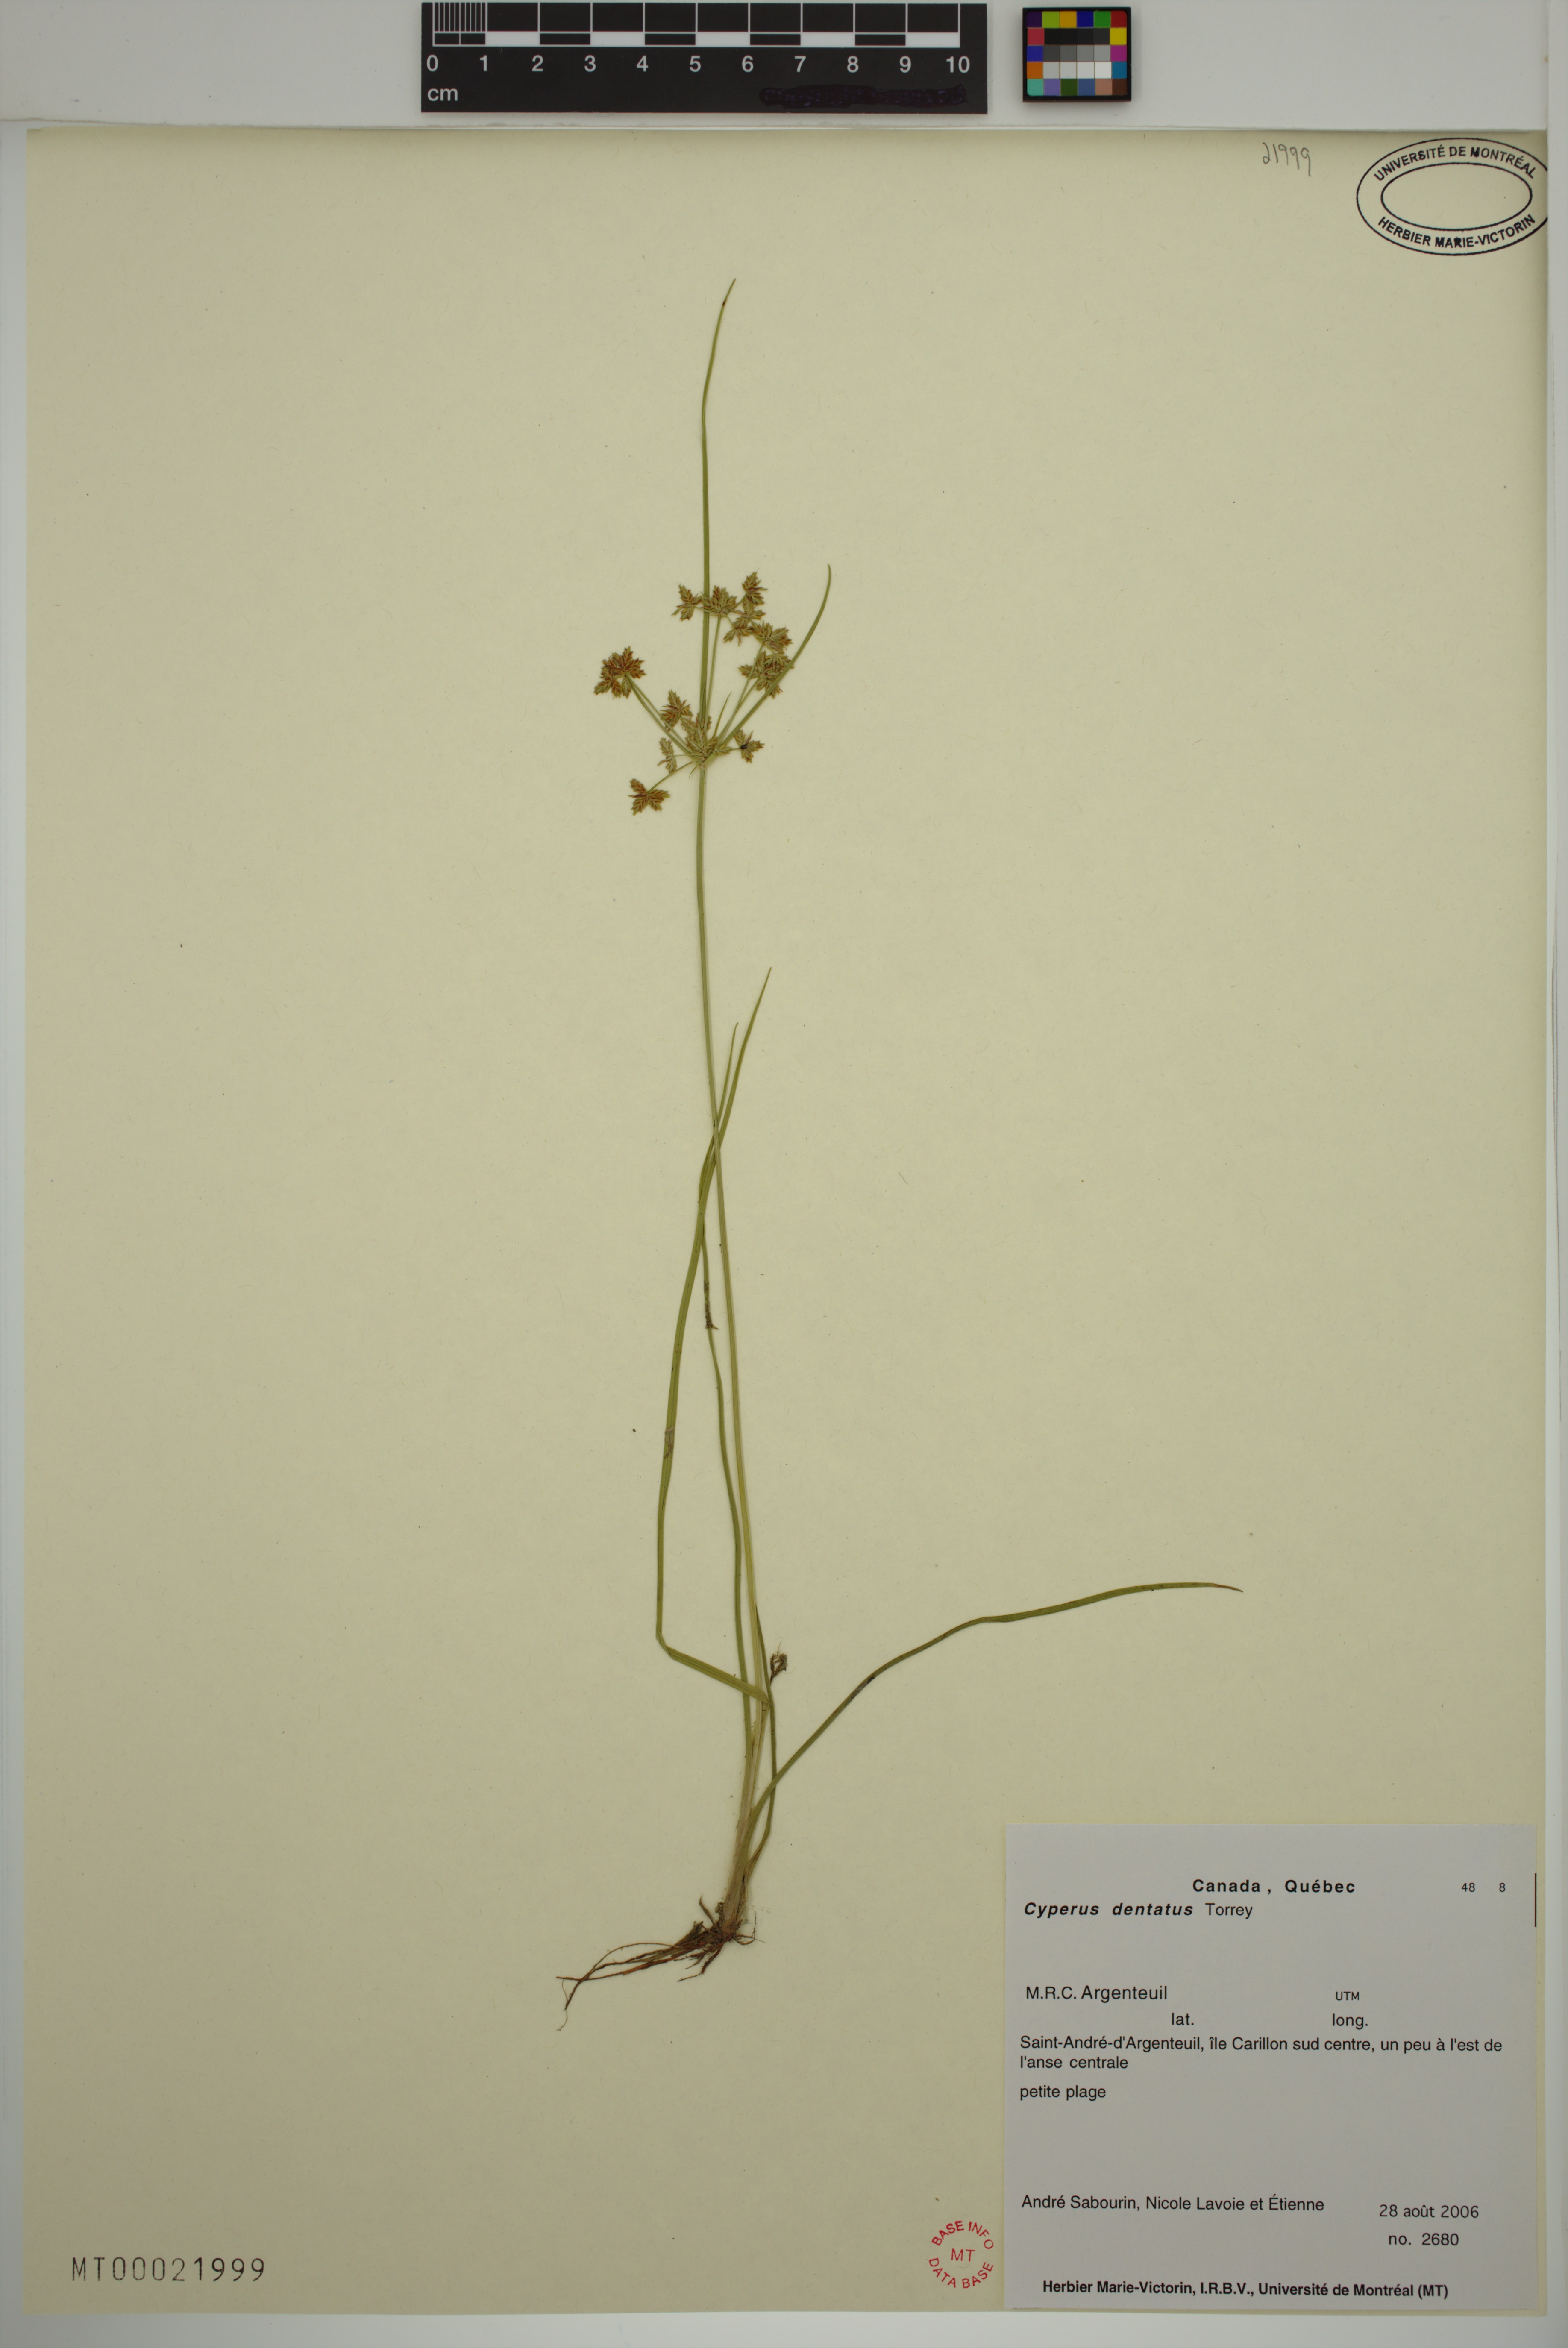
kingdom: Plantae
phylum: Tracheophyta
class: Liliopsida
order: Poales
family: Cyperaceae
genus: Cyperus
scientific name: Cyperus dentatus
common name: Dentate umbrella sedge
